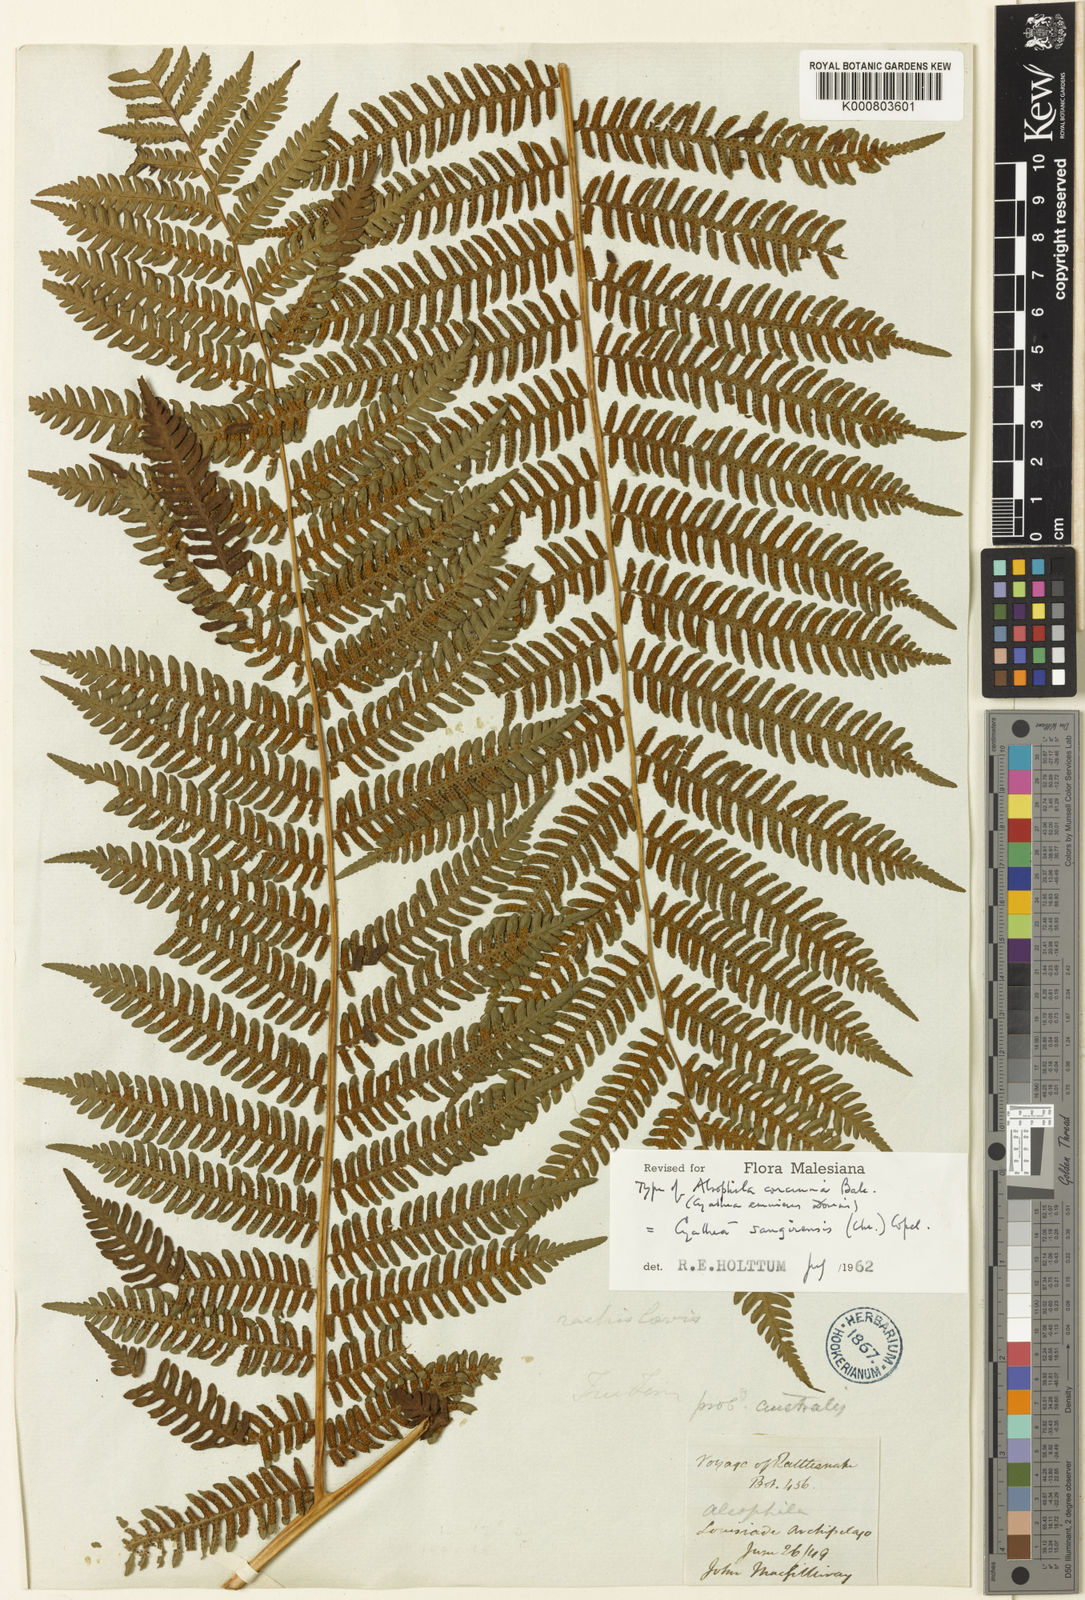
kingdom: Plantae
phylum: Tracheophyta
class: Polypodiopsida
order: Cyatheales
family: Cyatheaceae
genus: Sphaeropteris
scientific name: Sphaeropteris felina
